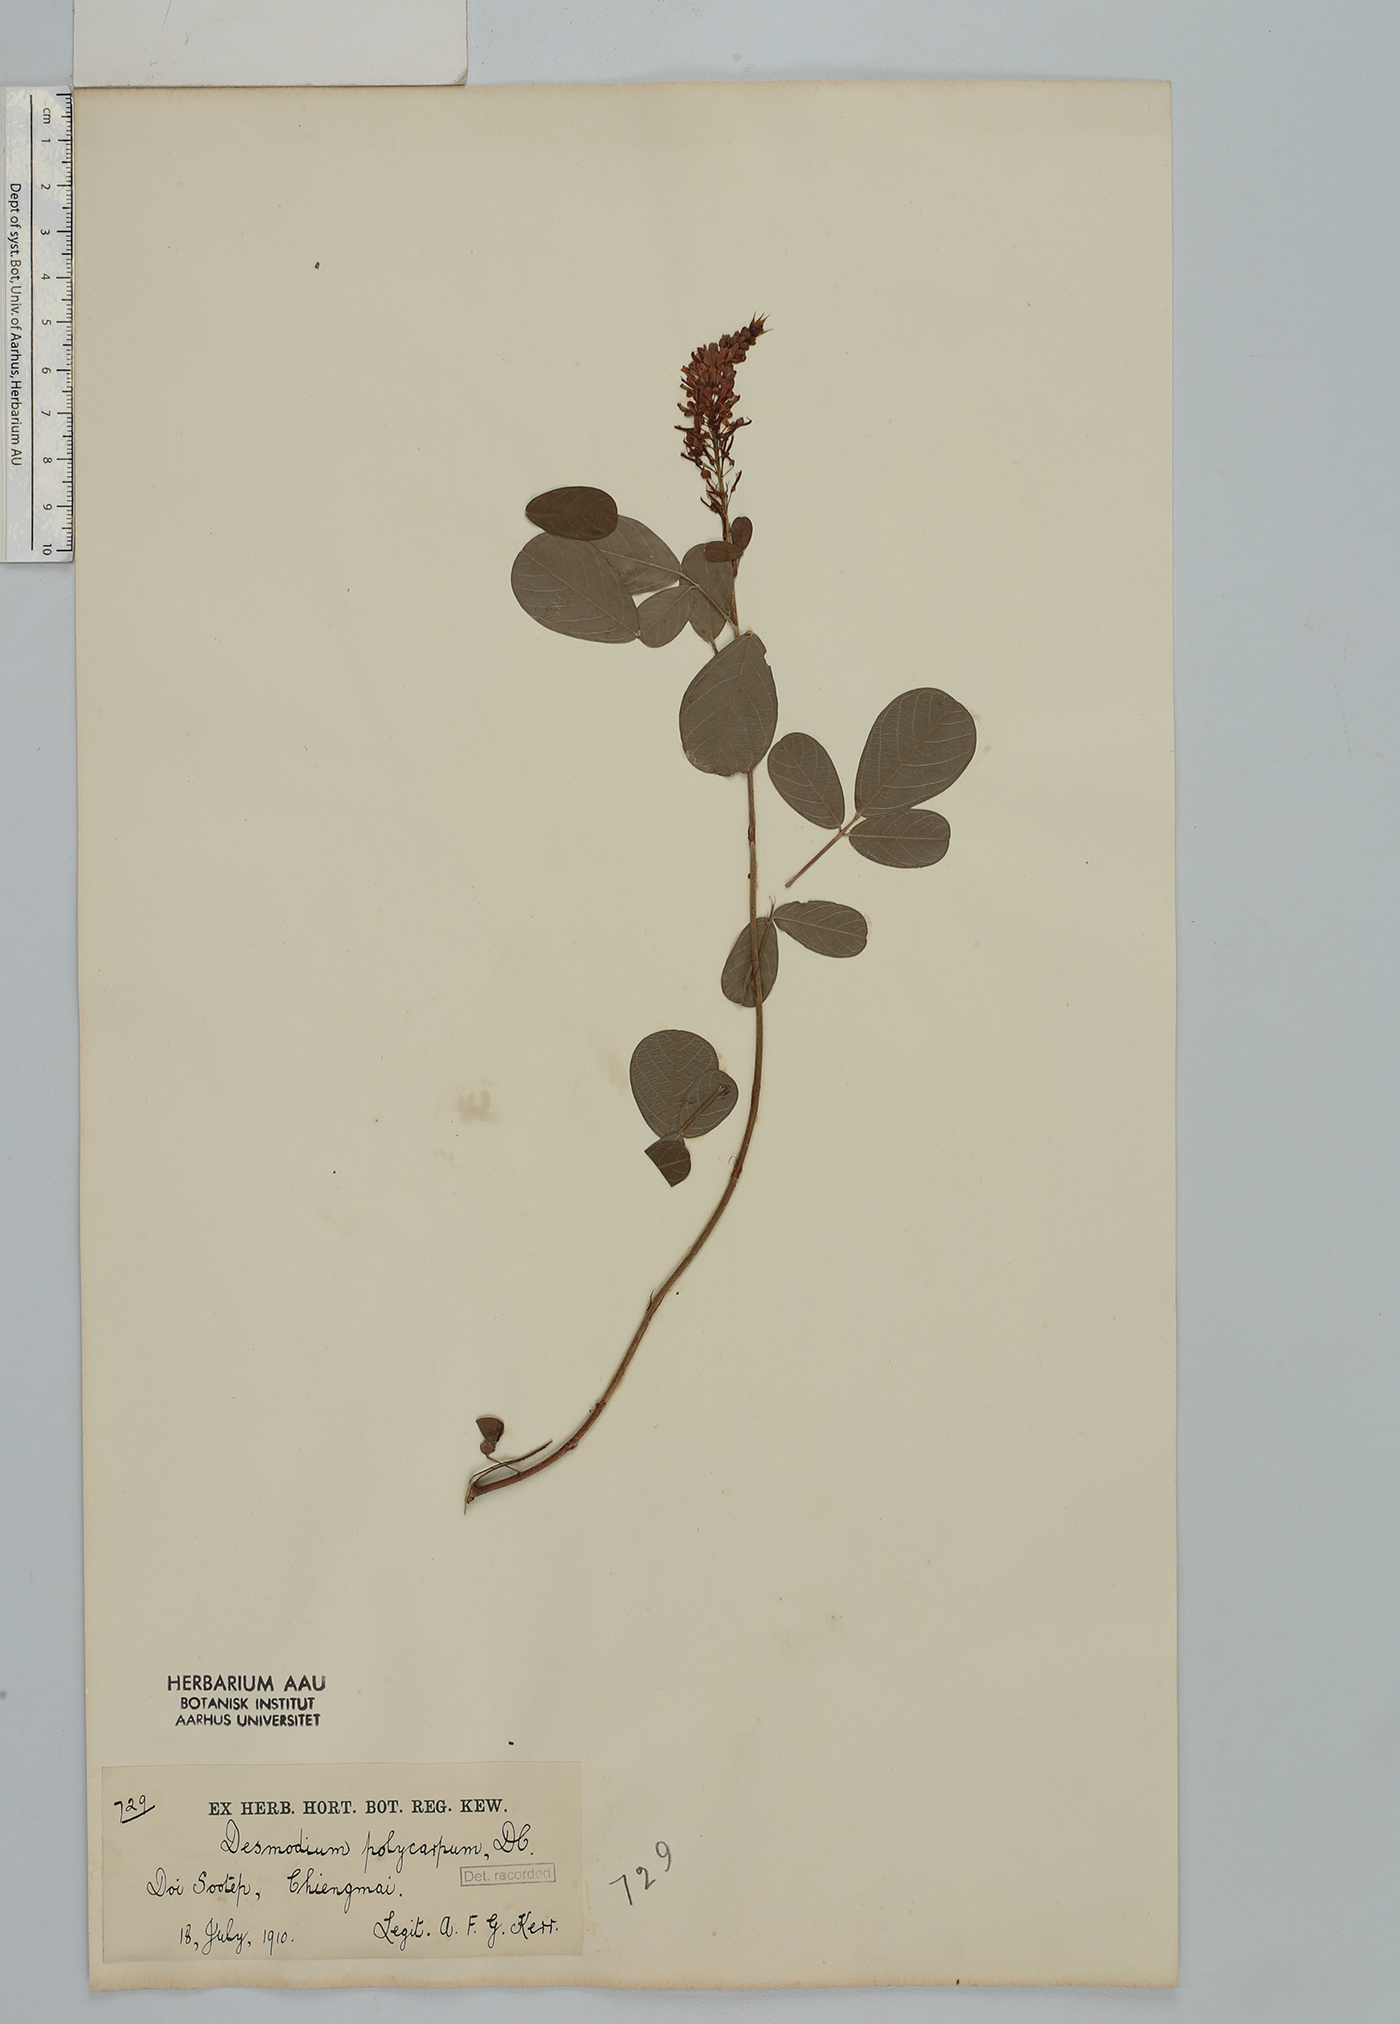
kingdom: Plantae
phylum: Tracheophyta
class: Magnoliopsida
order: Fabales
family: Fabaceae
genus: Grona
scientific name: Grona heterocarpos
